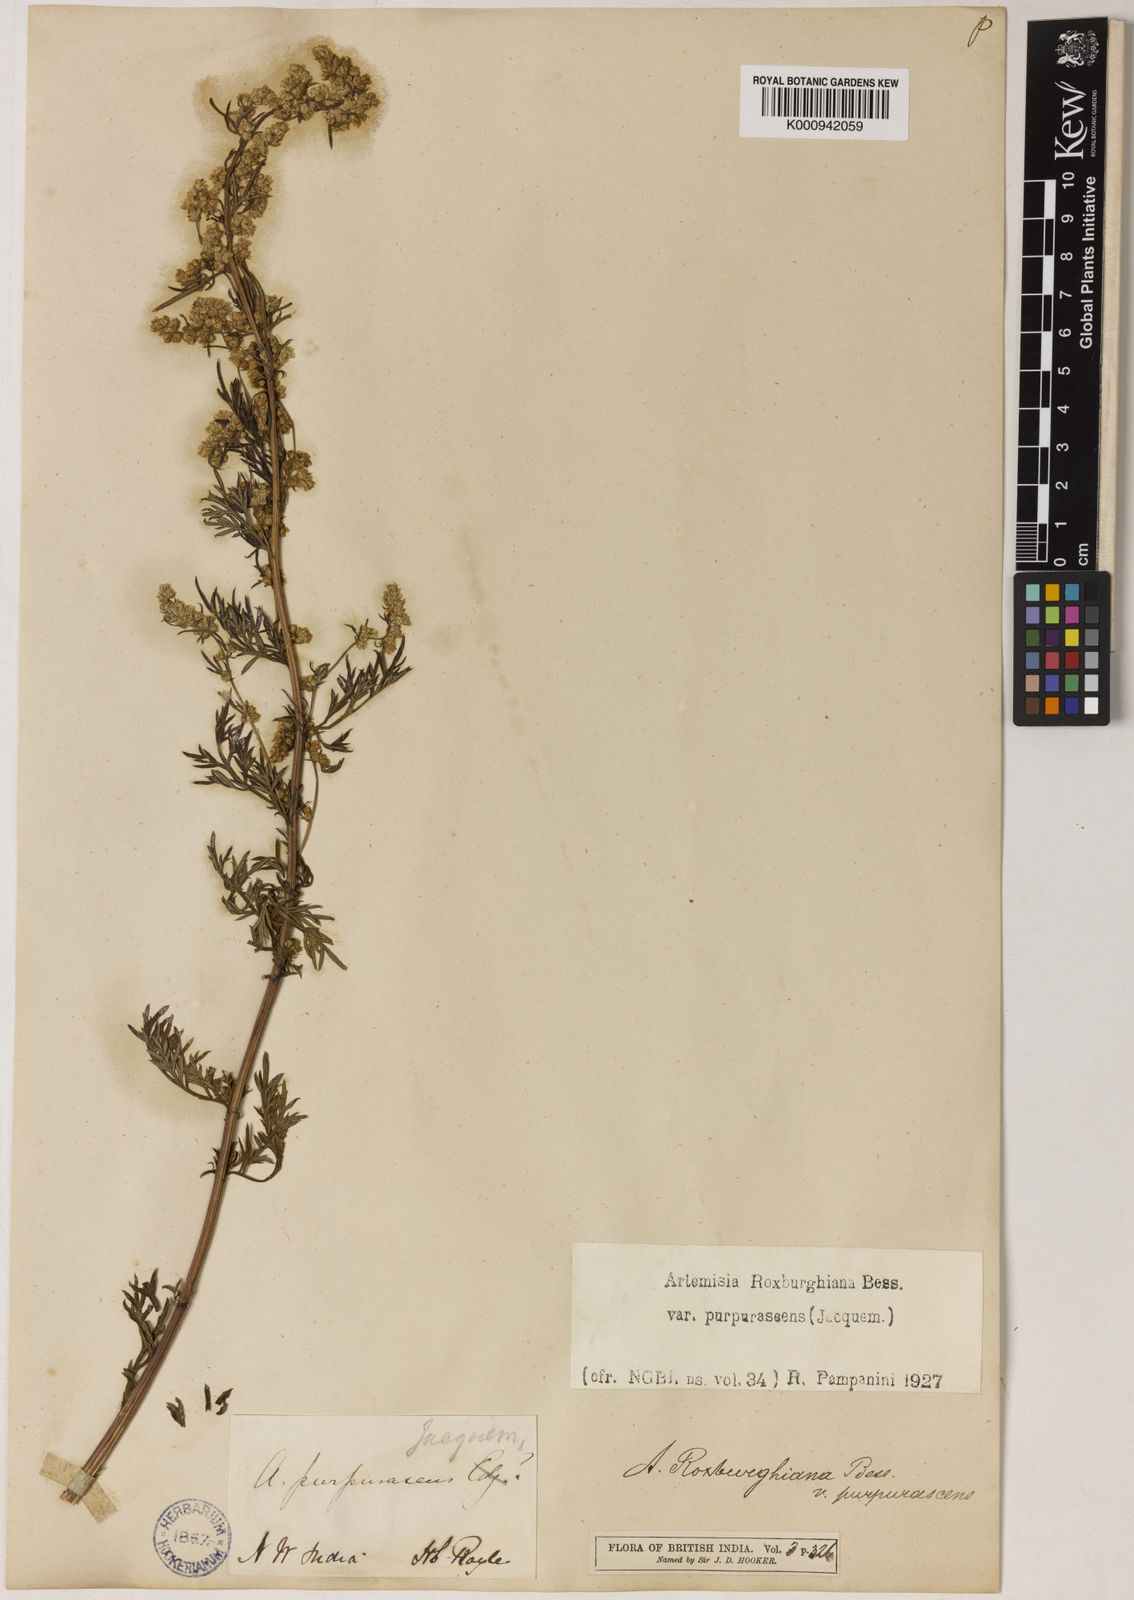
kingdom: Plantae
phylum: Tracheophyta
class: Magnoliopsida
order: Asterales
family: Asteraceae
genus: Artemisia
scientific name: Artemisia roxburghiana
